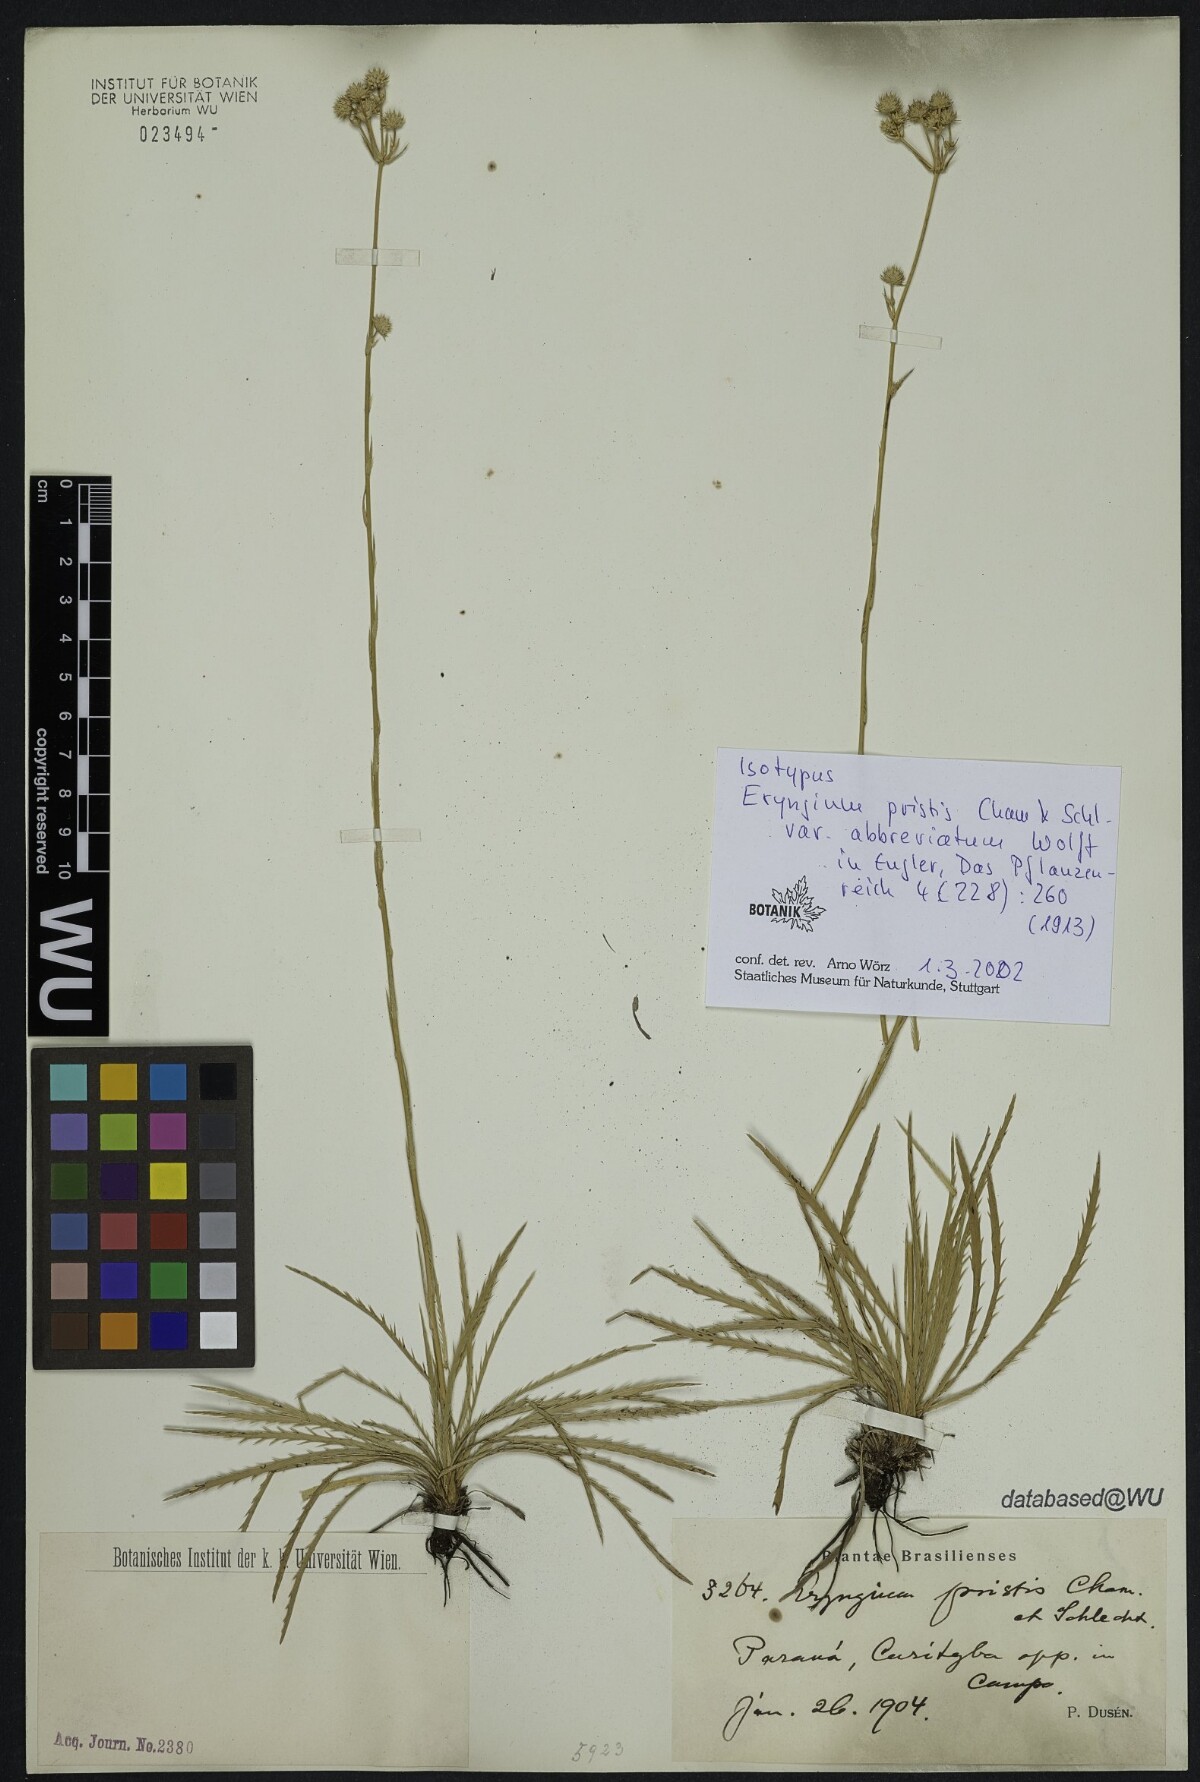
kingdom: Plantae
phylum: Tracheophyta
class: Magnoliopsida
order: Apiales
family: Apiaceae
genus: Eryngium
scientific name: Eryngium pristis
